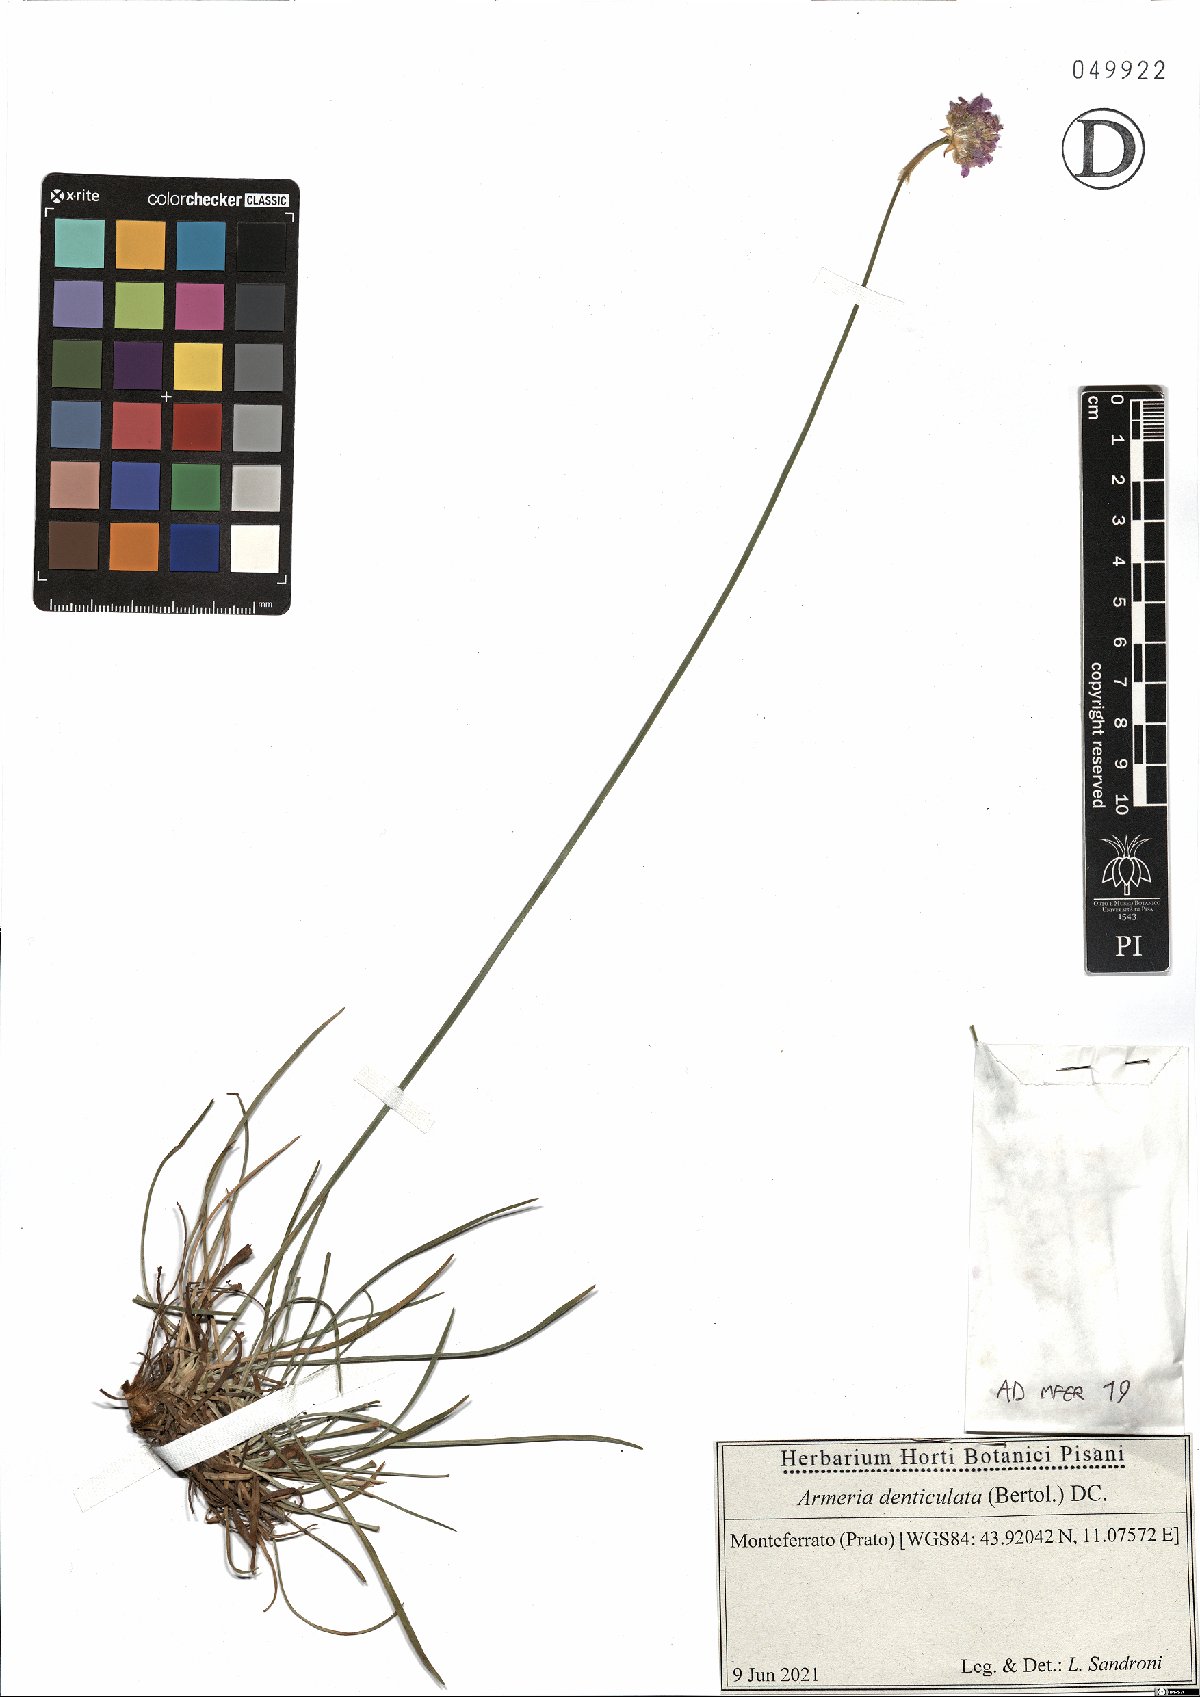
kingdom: Plantae
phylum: Tracheophyta
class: Magnoliopsida
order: Caryophyllales
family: Plumbaginaceae
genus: Armeria
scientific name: Armeria denticulata
